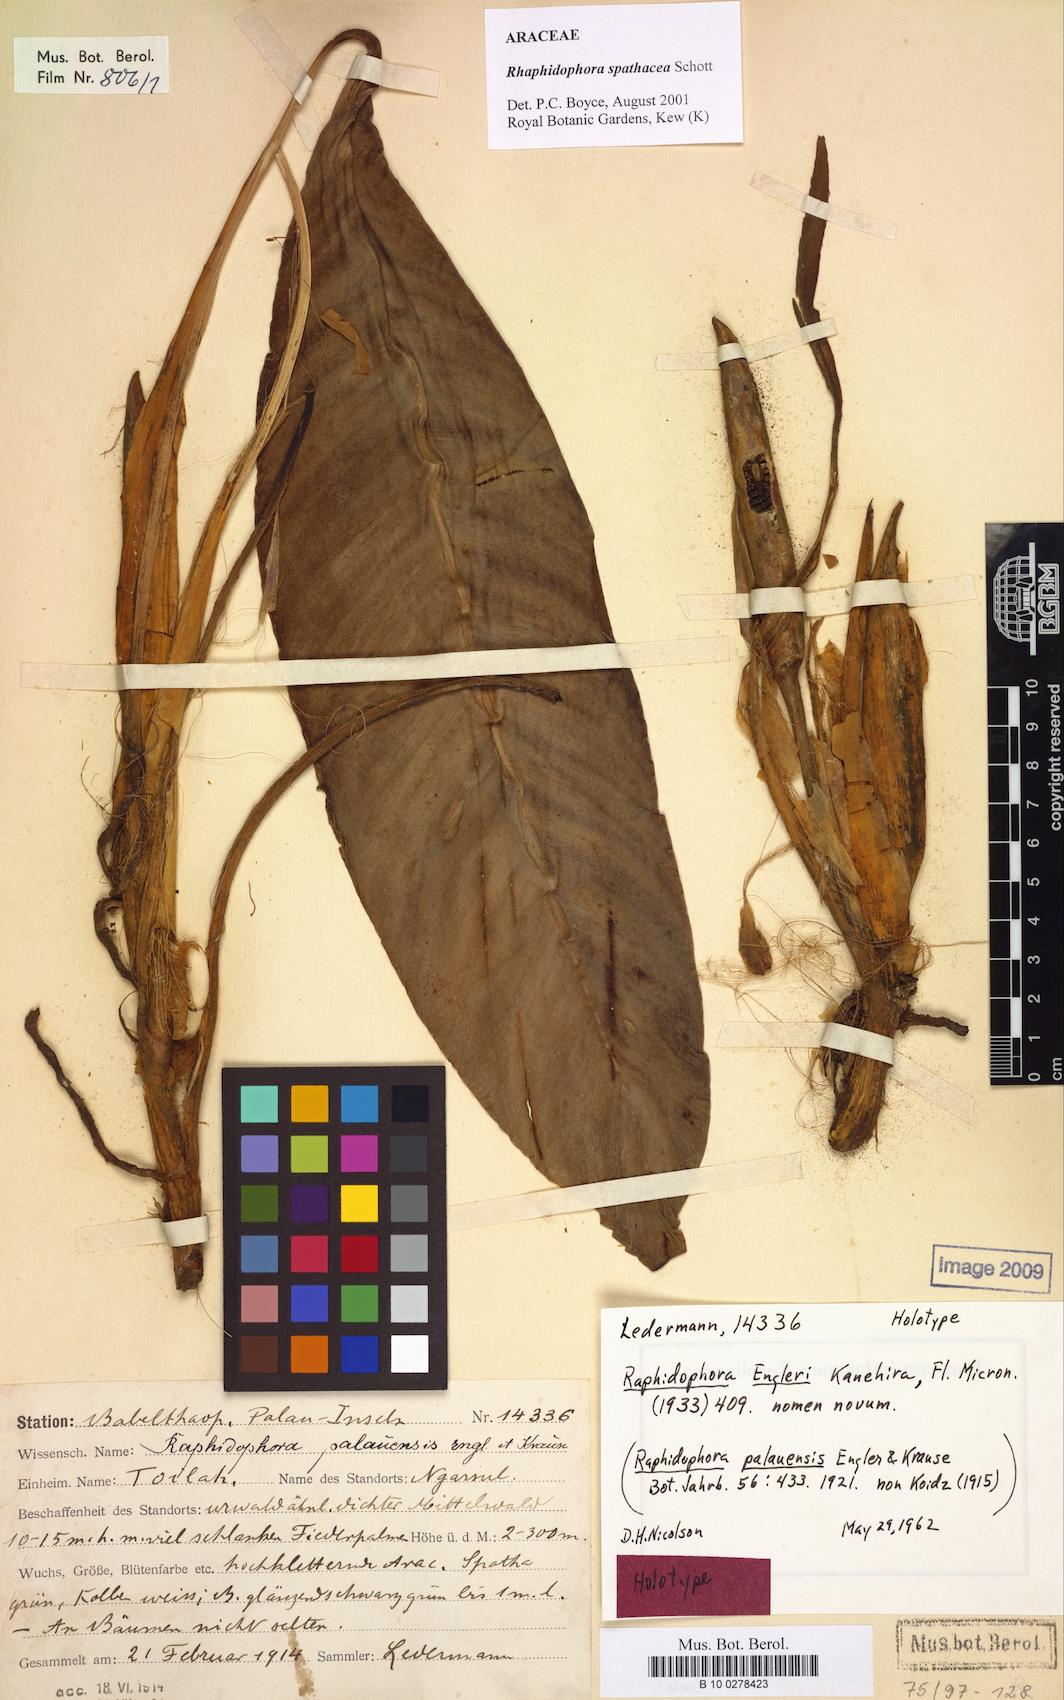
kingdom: Plantae
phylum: Tracheophyta
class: Liliopsida
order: Alismatales
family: Araceae
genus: Rhaphidophora
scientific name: Rhaphidophora spathacea
